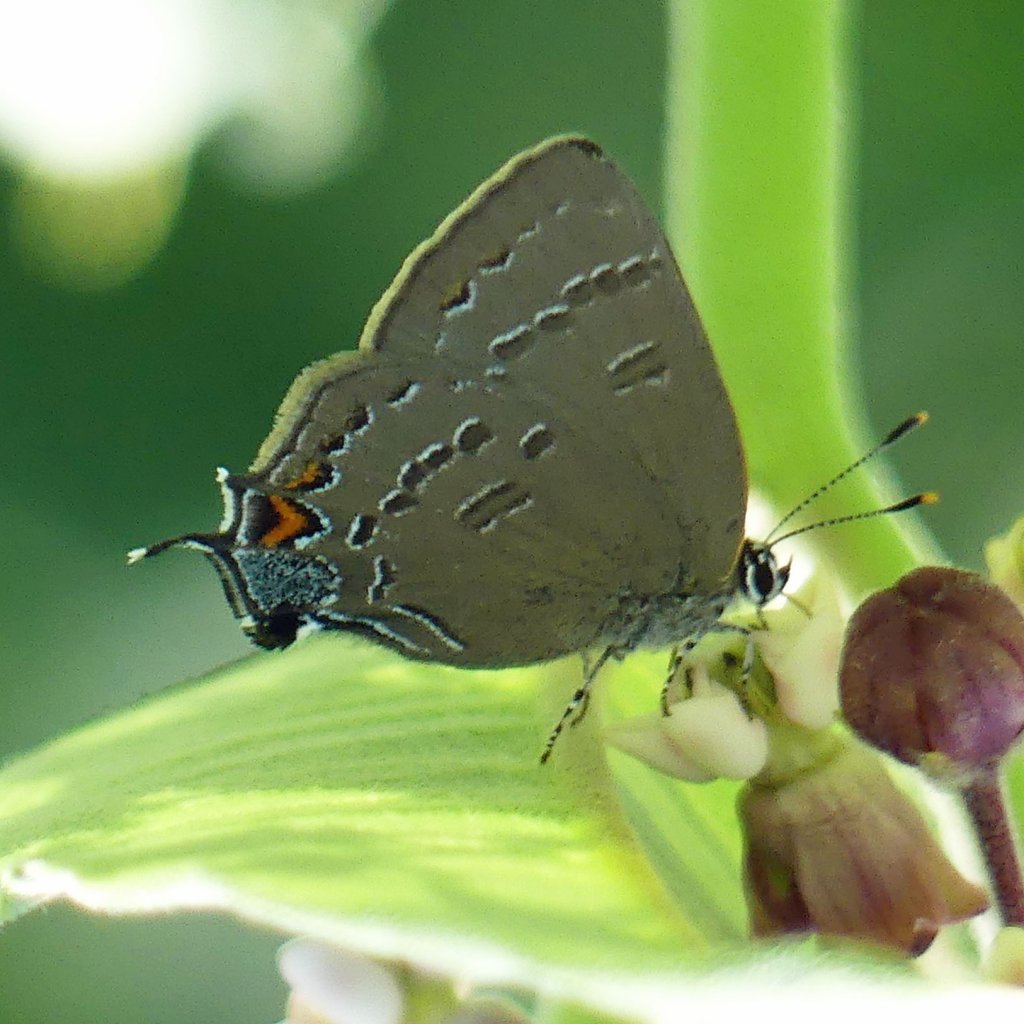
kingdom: Animalia
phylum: Arthropoda
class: Insecta
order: Lepidoptera
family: Lycaenidae
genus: Satyrium
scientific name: Satyrium calanus
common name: Banded Hairstreak
